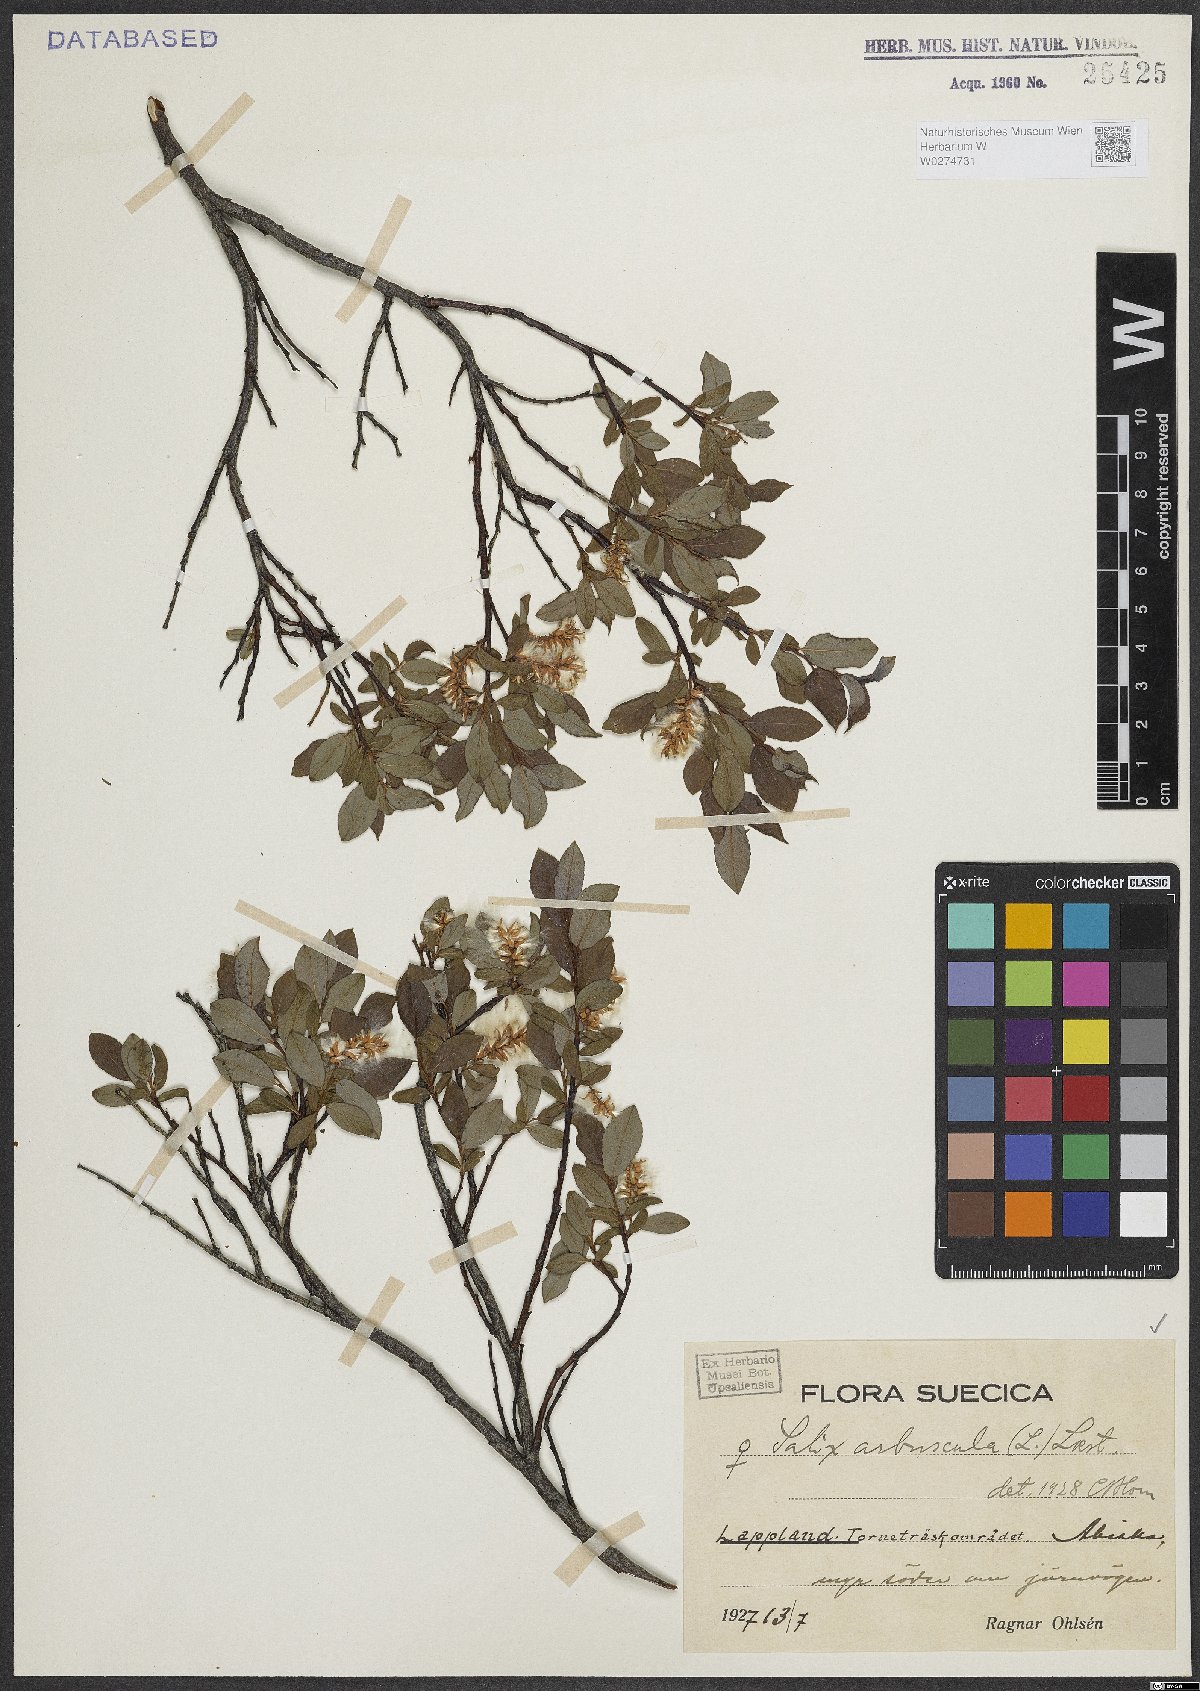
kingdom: Plantae
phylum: Tracheophyta
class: Magnoliopsida
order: Malpighiales
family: Salicaceae
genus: Salix
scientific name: Salix arbuscula
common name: Mountain willow
